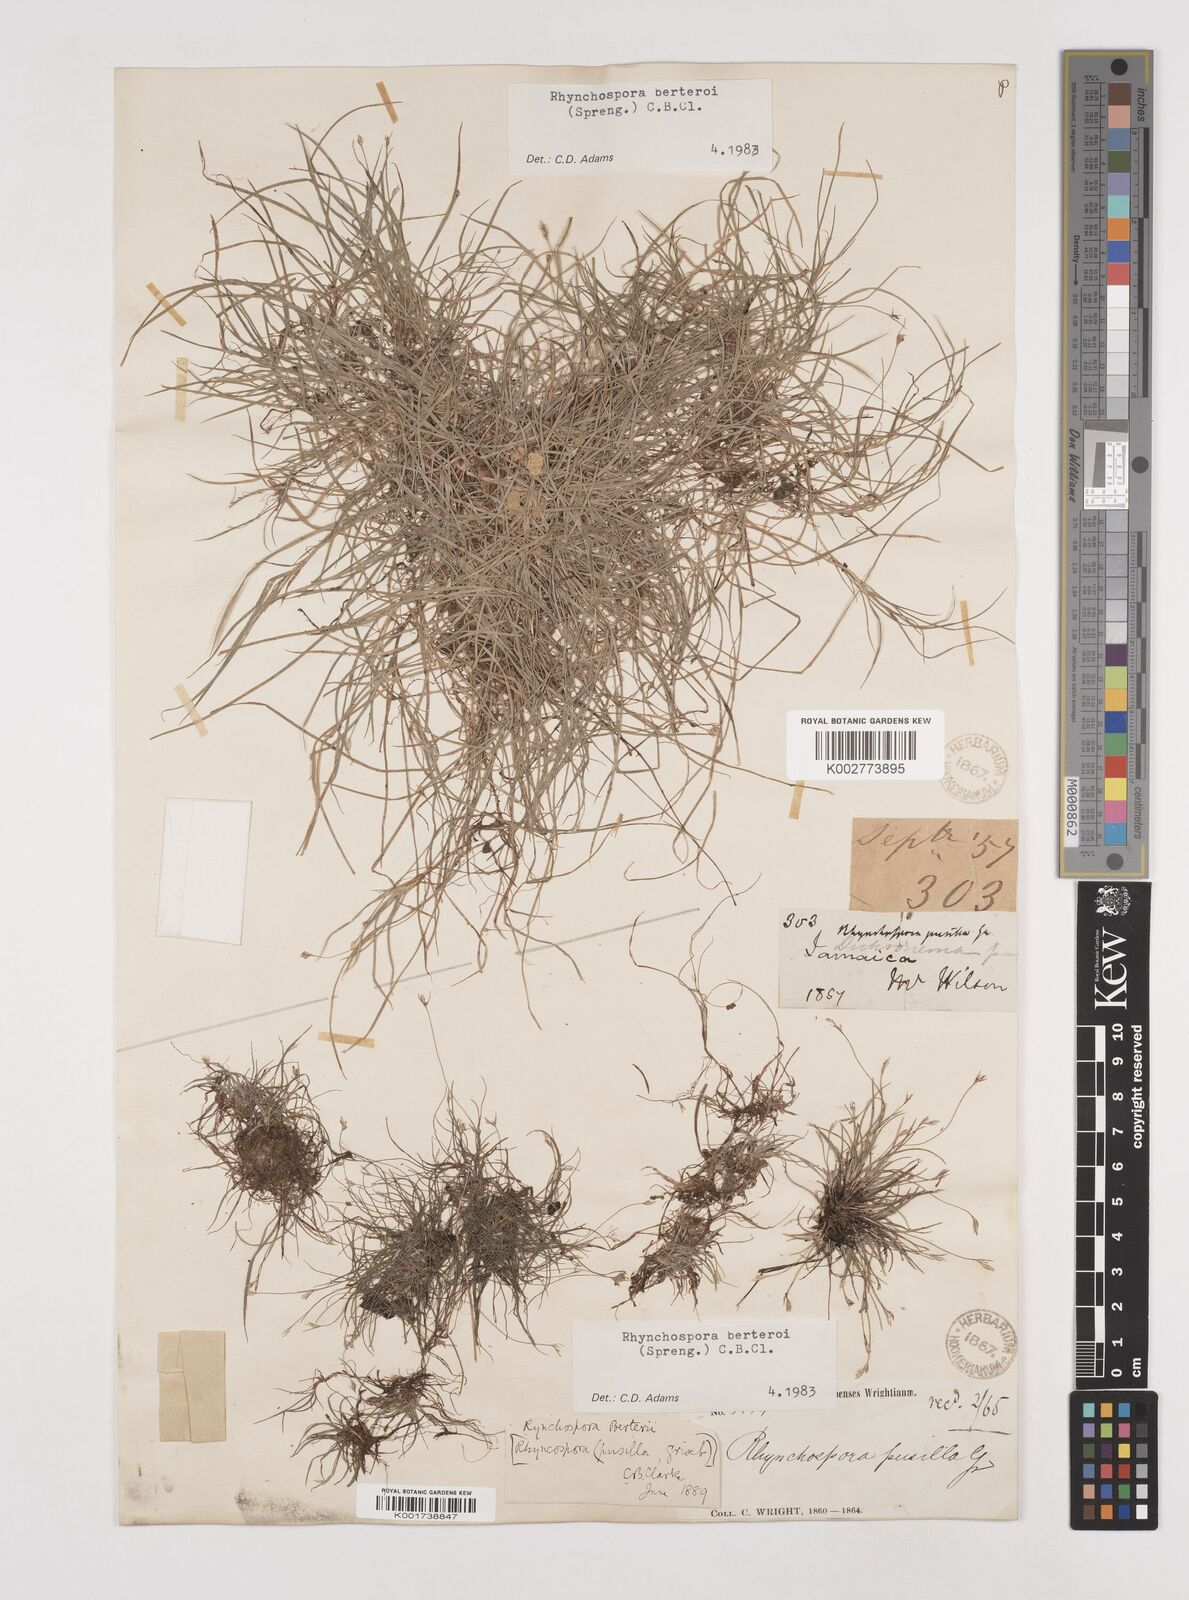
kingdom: Plantae
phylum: Tracheophyta
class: Liliopsida
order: Poales
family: Cyperaceae
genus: Rhynchospora
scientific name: Rhynchospora berteroi
